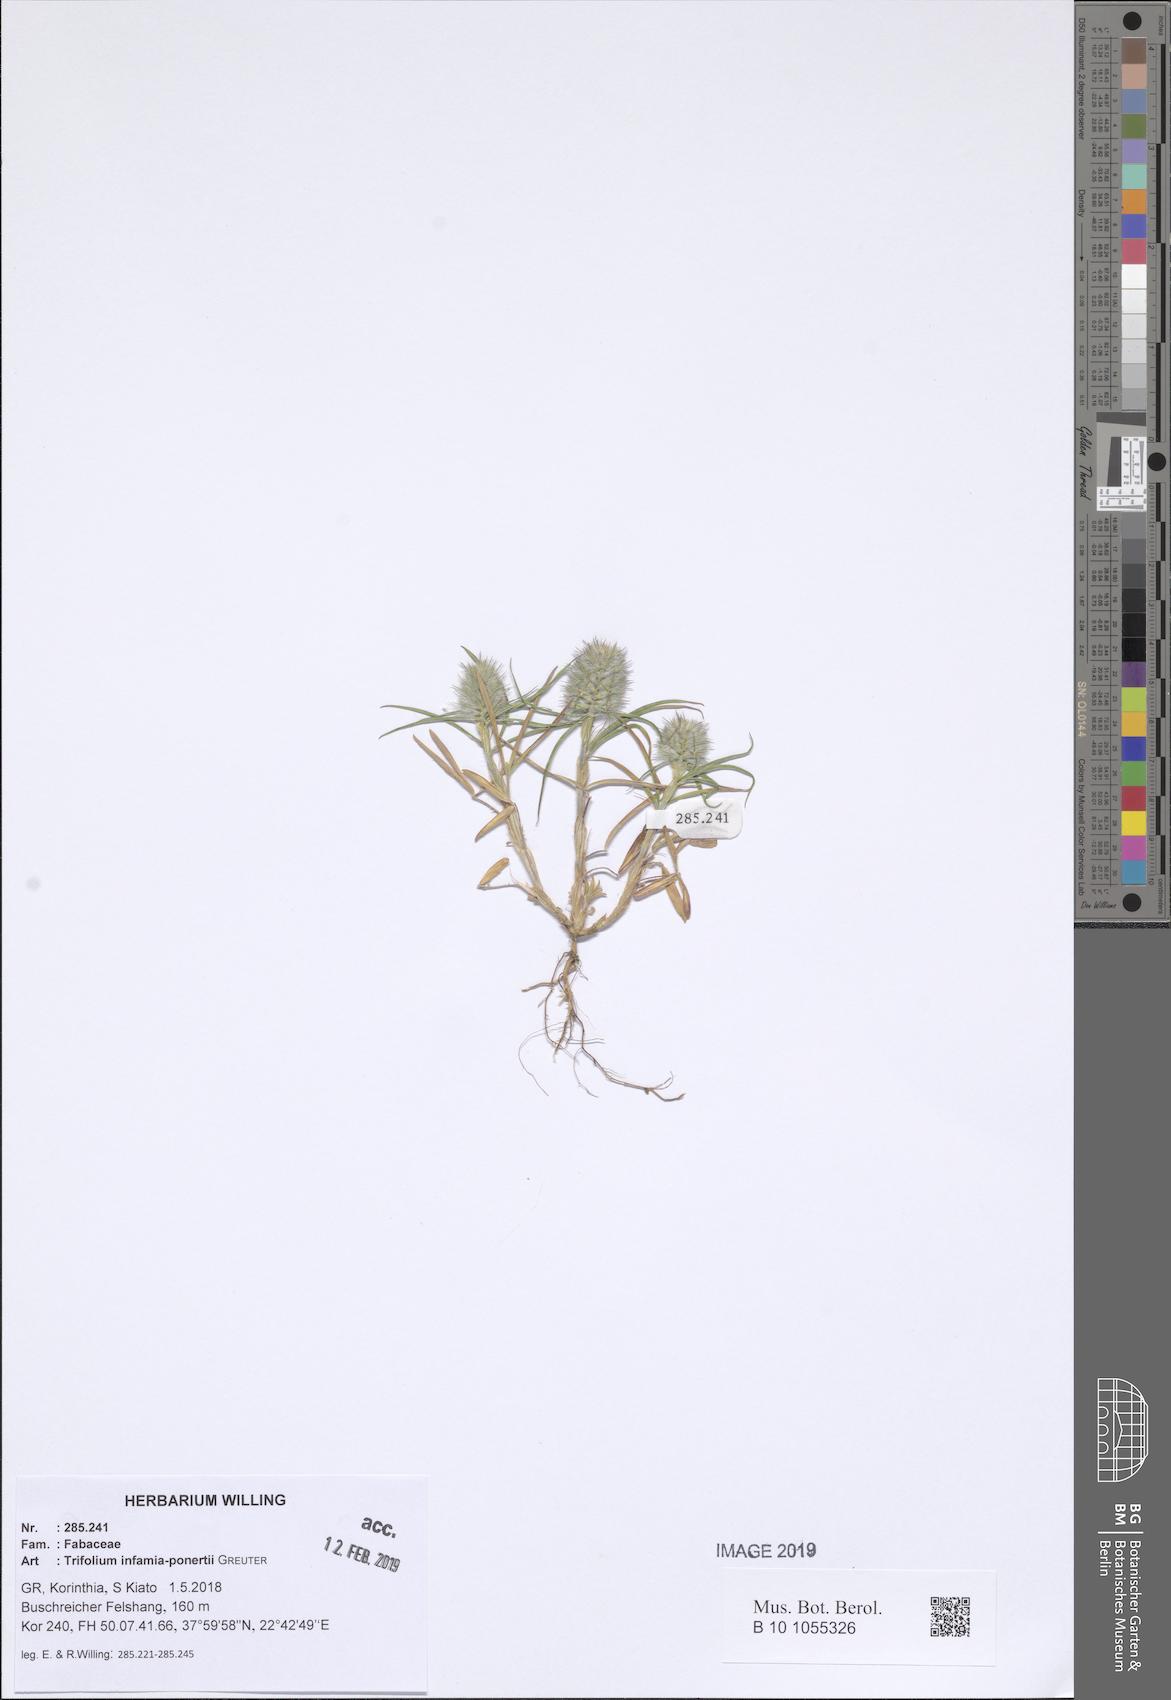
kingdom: Plantae
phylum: Tracheophyta
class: Magnoliopsida
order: Fabales
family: Fabaceae
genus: Trifolium
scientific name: Trifolium infamia-ponertii
